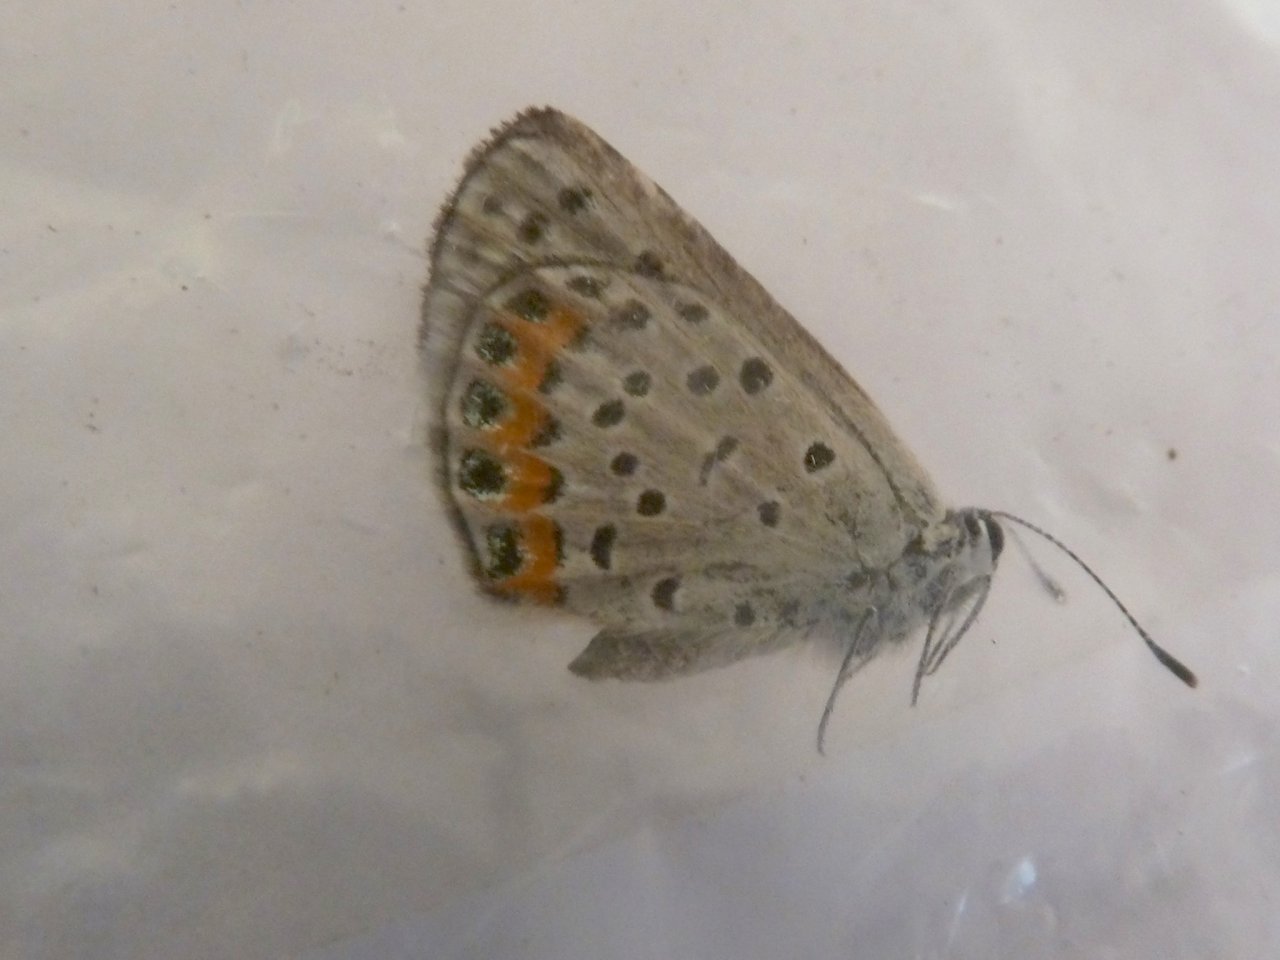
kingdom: Animalia
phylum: Arthropoda
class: Insecta
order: Lepidoptera
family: Lycaenidae
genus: Plebejus
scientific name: Plebejus lupini
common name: Lupine Blue
